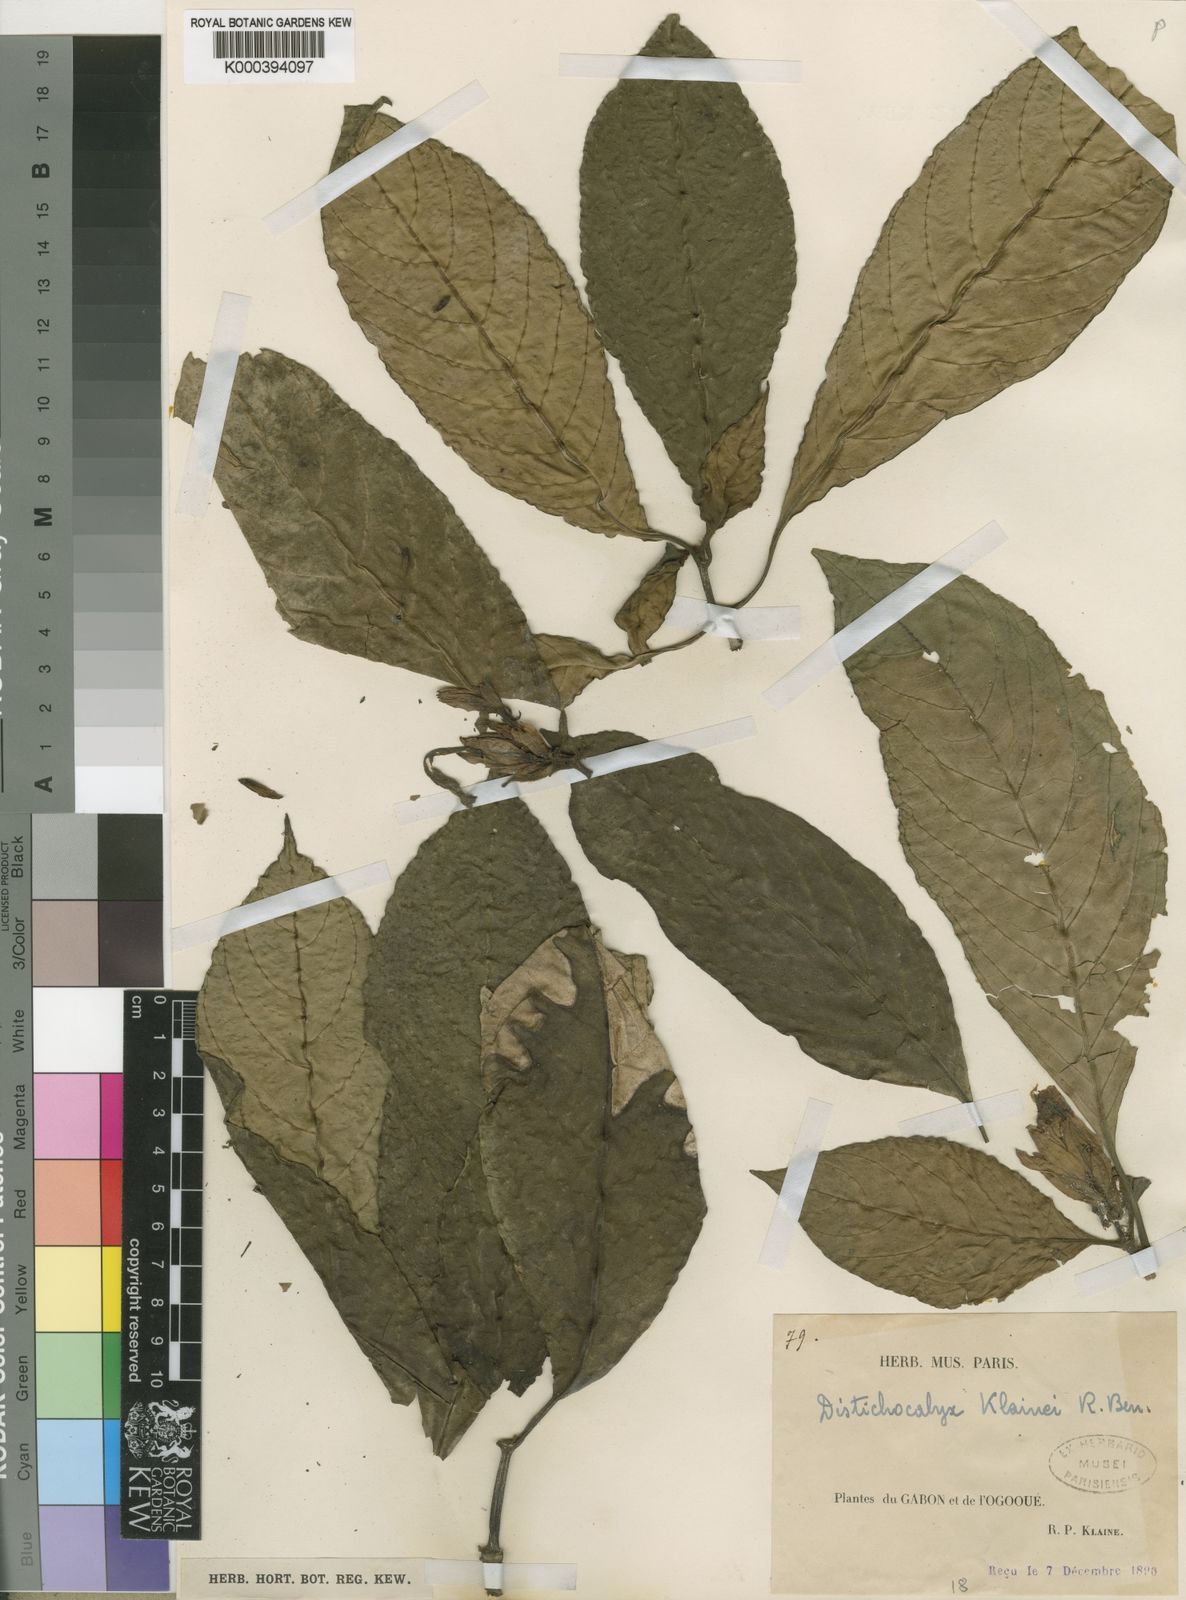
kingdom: Plantae
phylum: Tracheophyta
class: Magnoliopsida
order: Lamiales
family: Acanthaceae
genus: Dischistocalyx
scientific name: Dischistocalyx klainei
